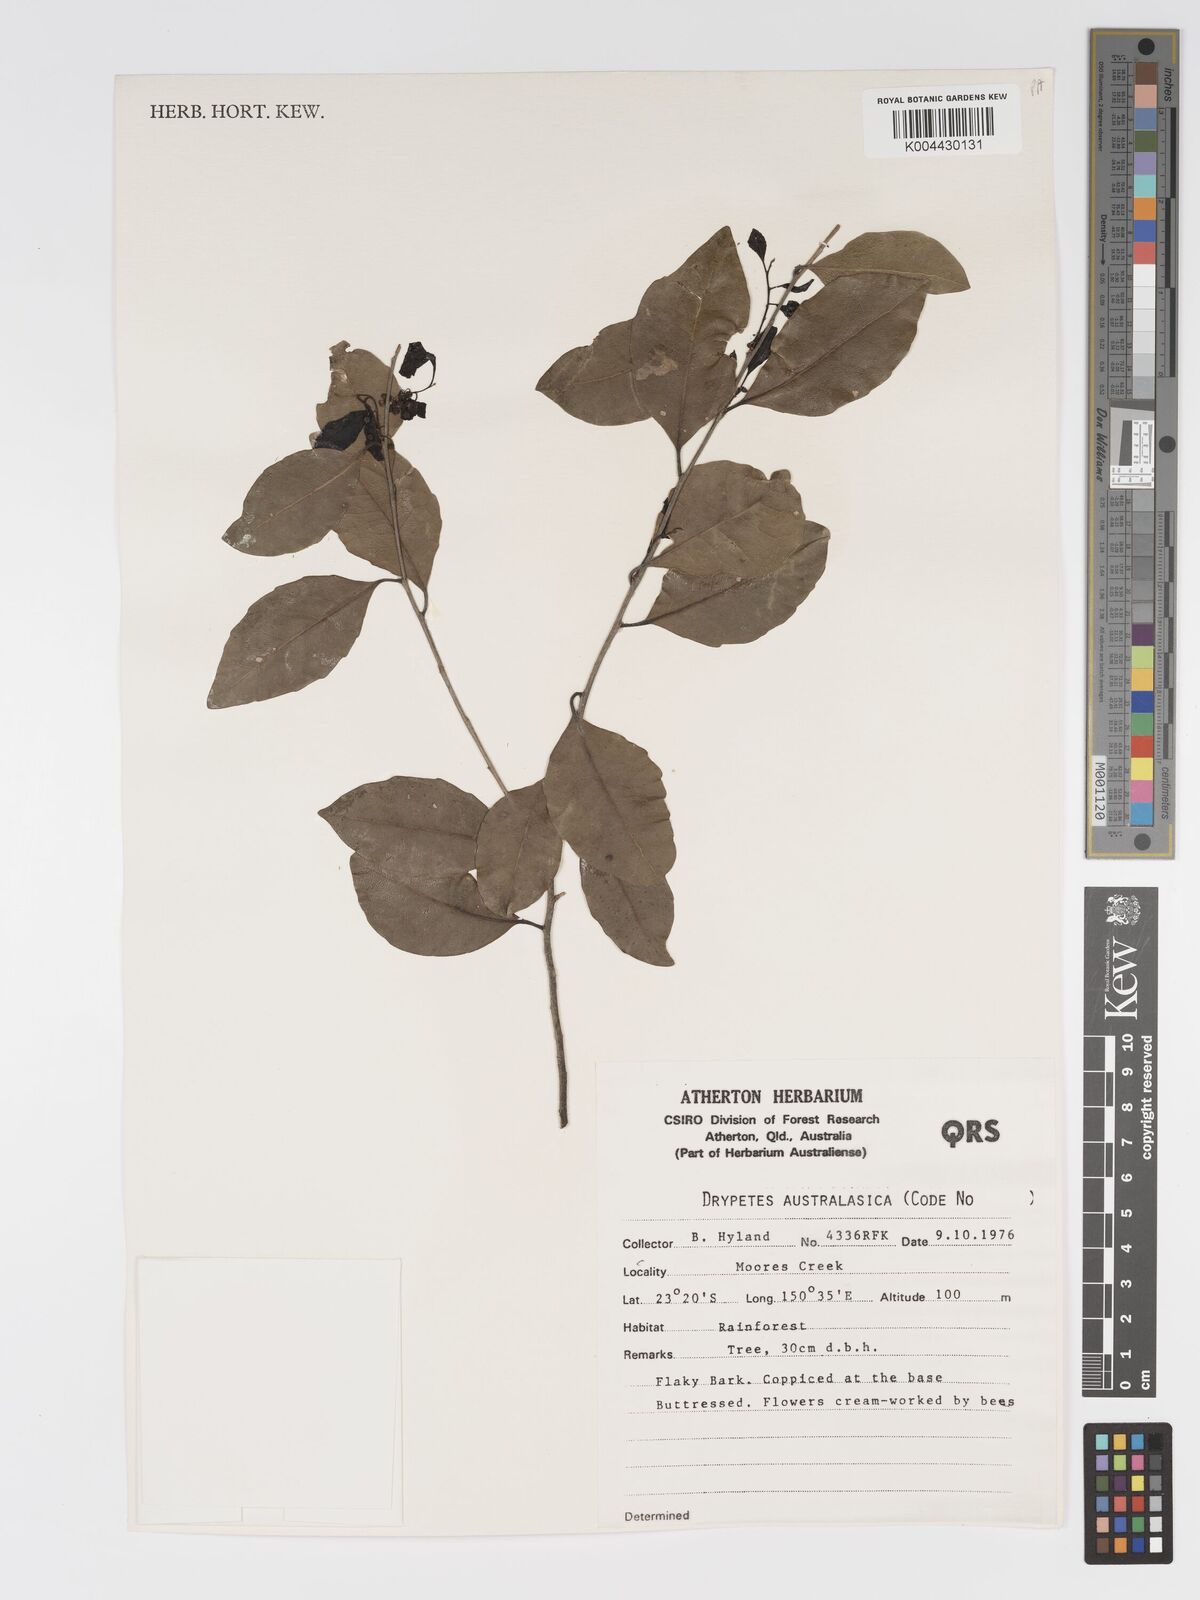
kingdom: Plantae
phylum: Tracheophyta
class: Magnoliopsida
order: Malpighiales
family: Putranjivaceae
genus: Drypetes
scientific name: Drypetes deplanchei
